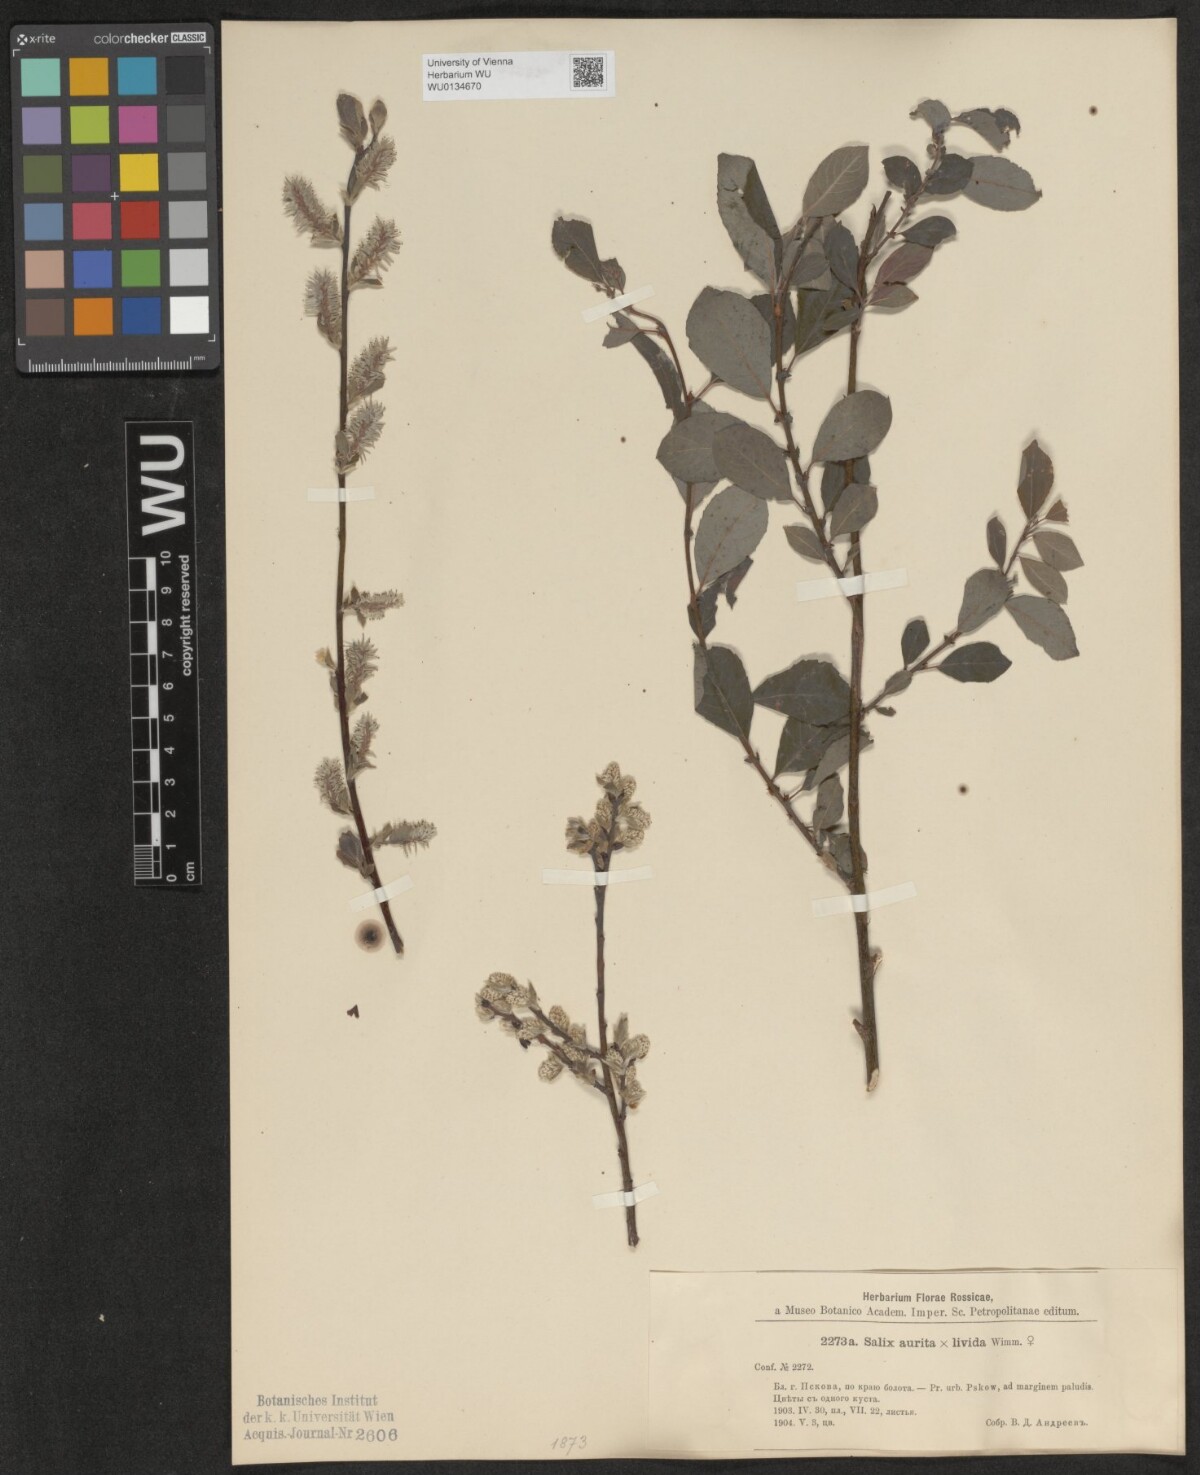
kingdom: Plantae
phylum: Tracheophyta
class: Magnoliopsida
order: Malpighiales
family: Salicaceae
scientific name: Salicaceae
